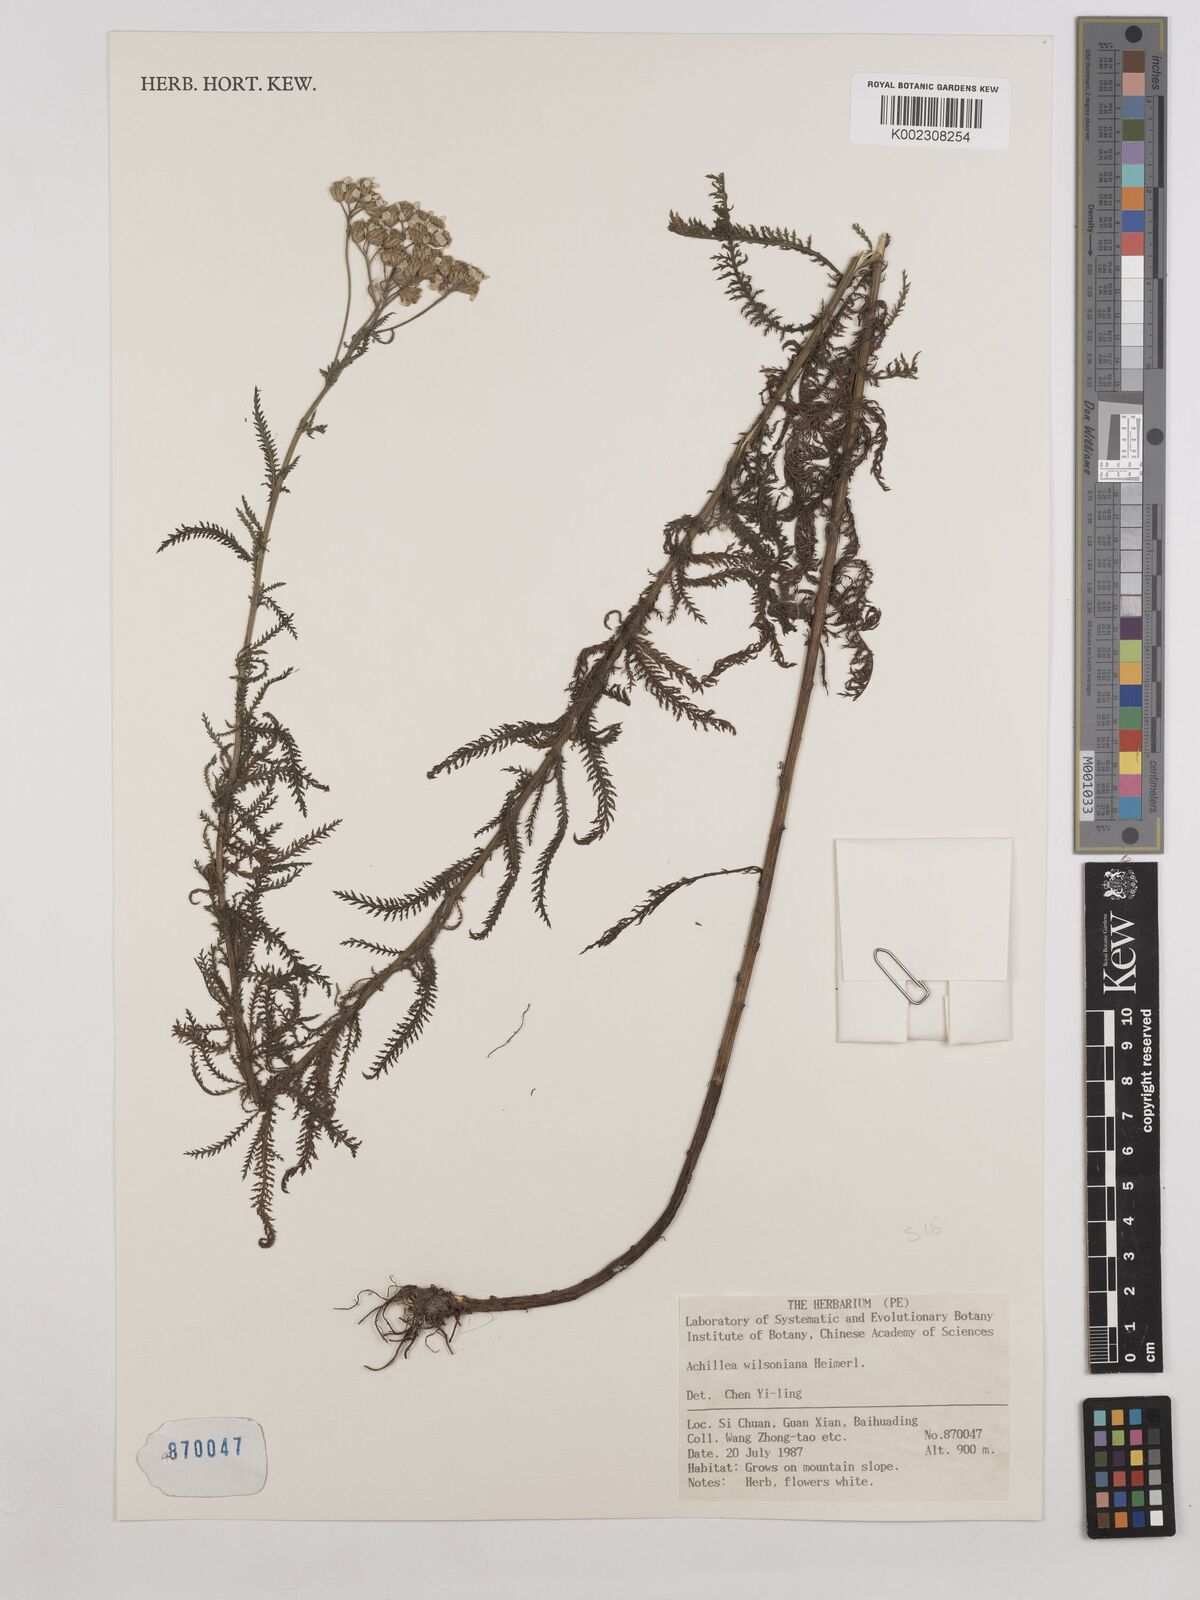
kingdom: Plantae
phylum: Tracheophyta
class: Magnoliopsida
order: Asterales
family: Asteraceae
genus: Achillea
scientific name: Achillea wilsoniana
